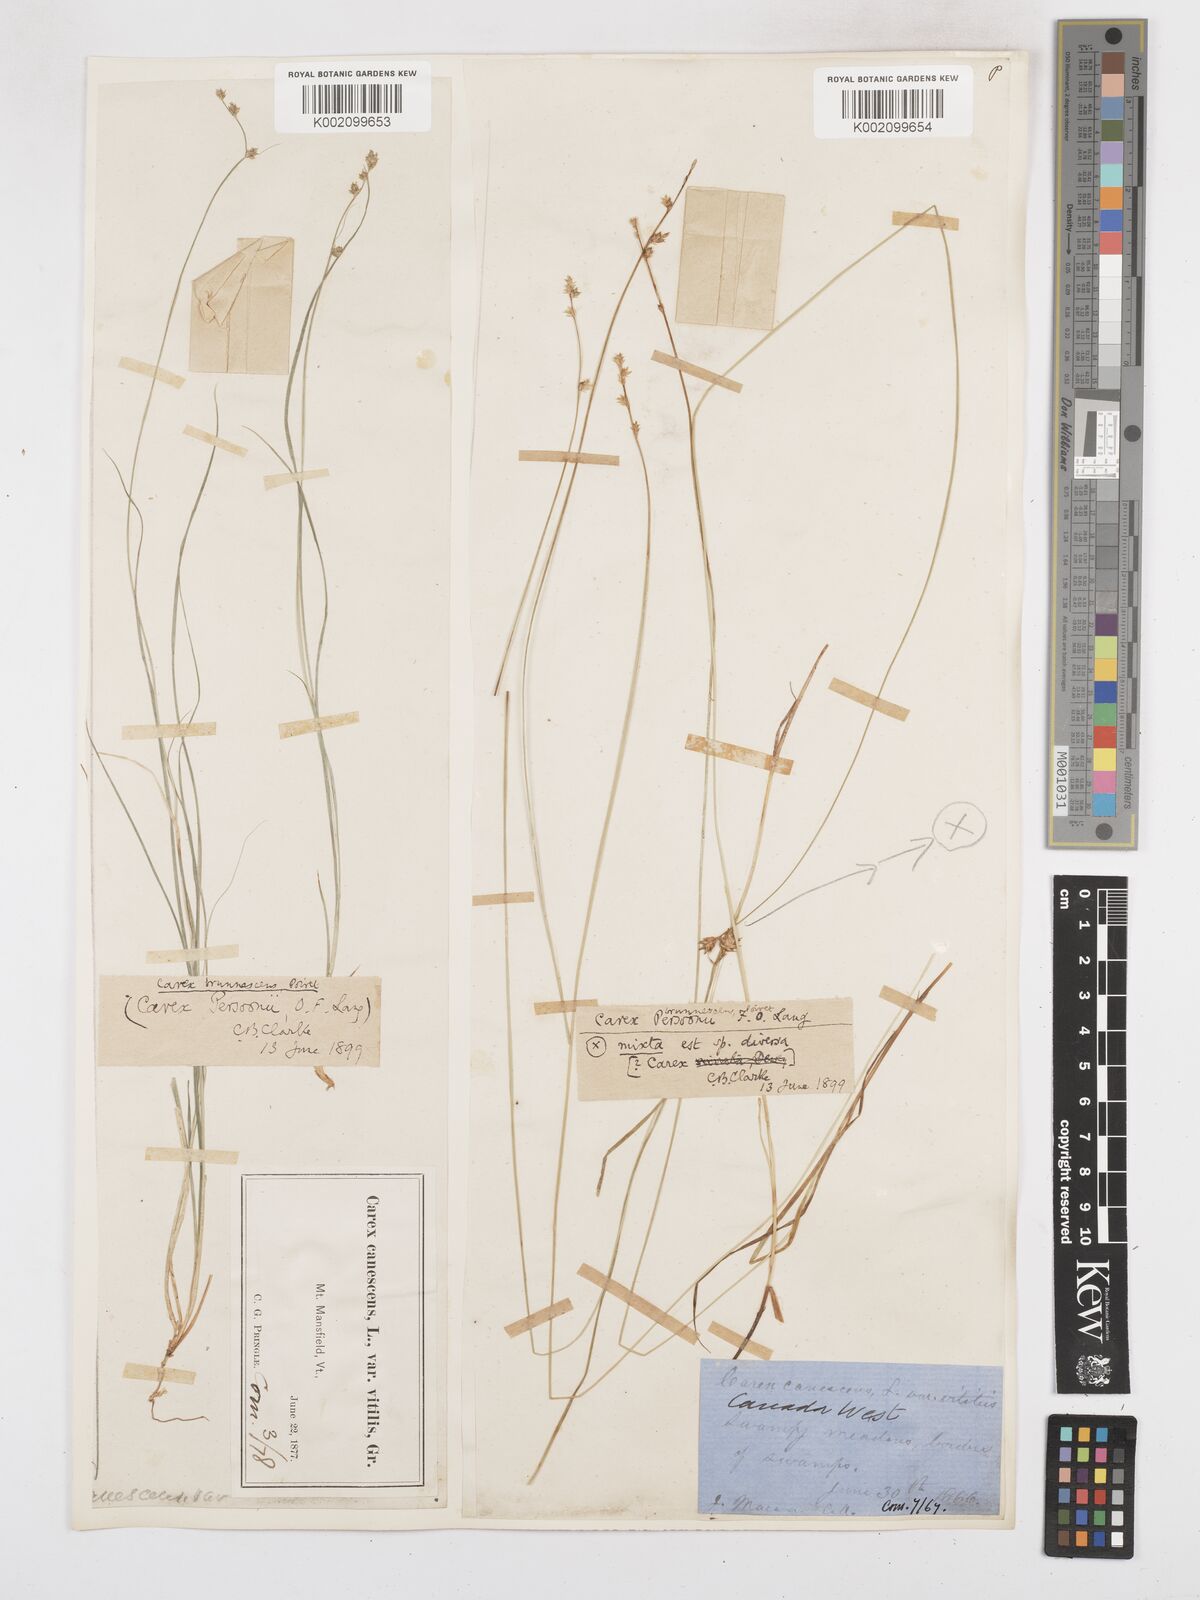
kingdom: Plantae
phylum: Tracheophyta
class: Liliopsida
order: Poales
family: Cyperaceae
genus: Carex
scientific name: Carex brunnescens
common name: Brown sedge
